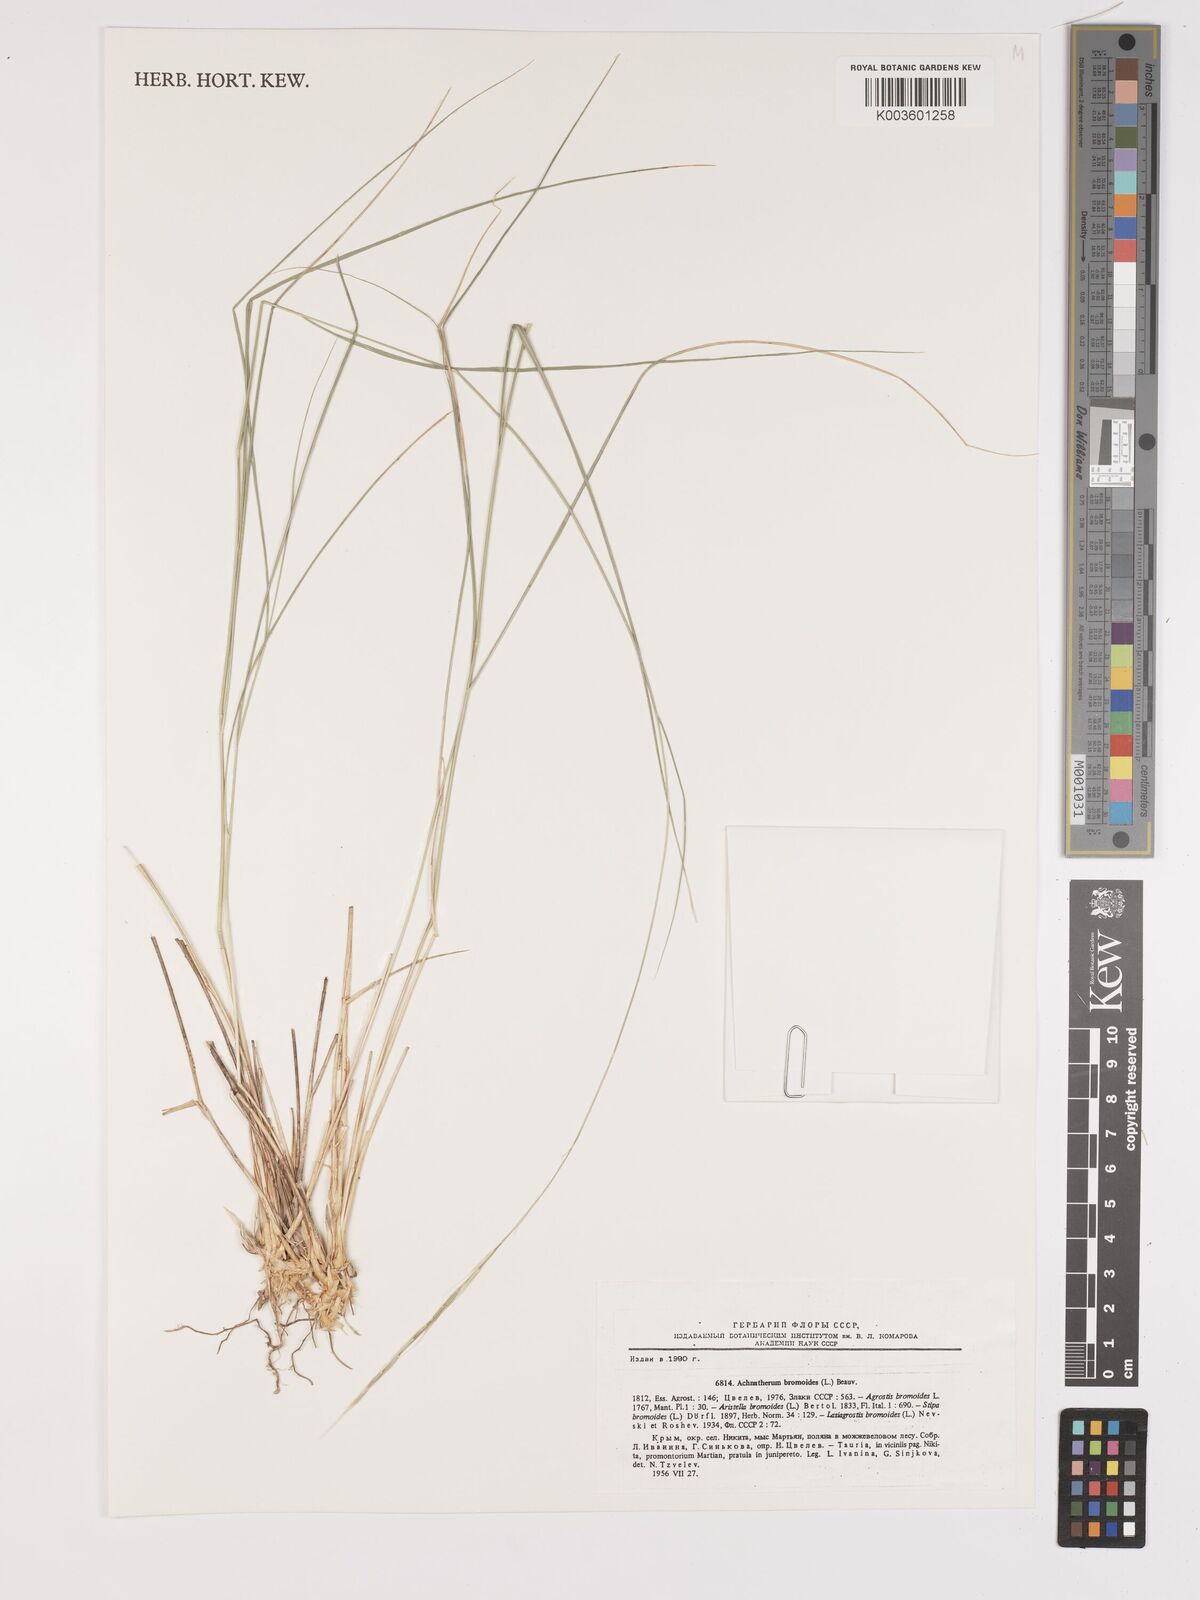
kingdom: Plantae
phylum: Tracheophyta
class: Liliopsida
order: Poales
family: Poaceae
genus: Achnatherum
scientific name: Achnatherum bromoides
